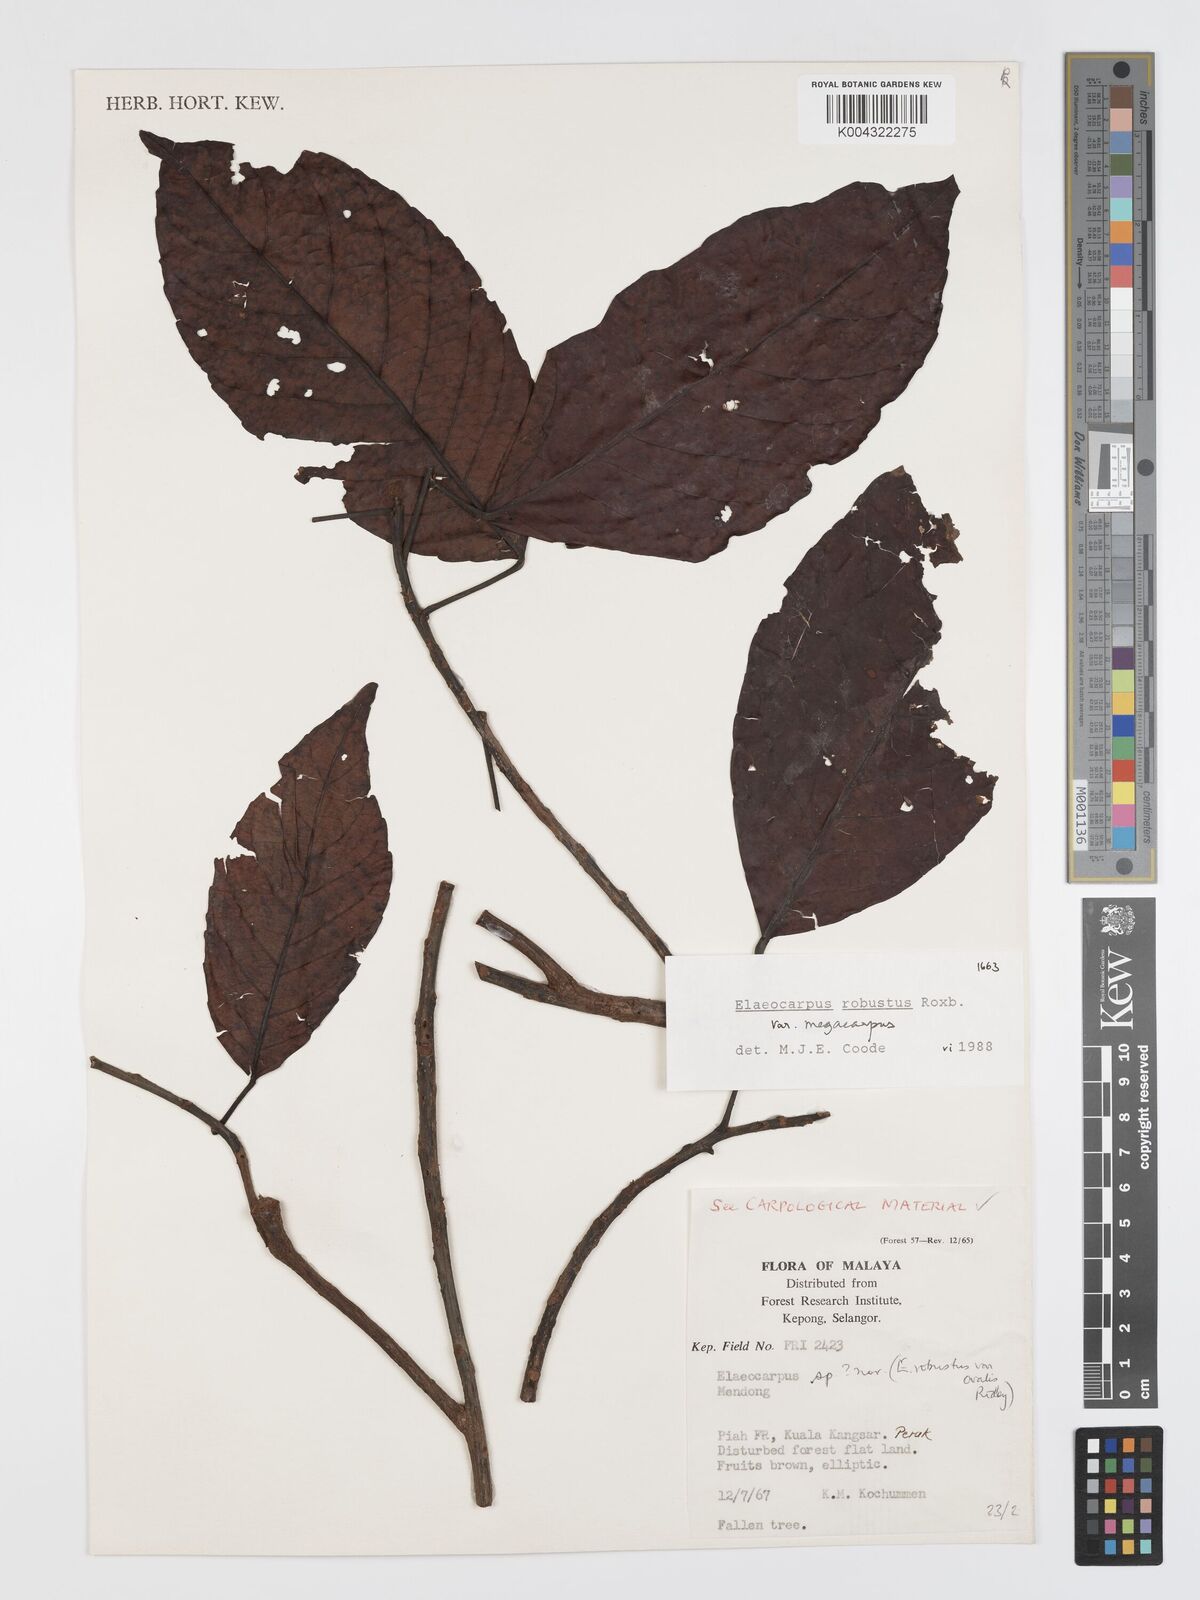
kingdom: Plantae
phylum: Tracheophyta
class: Magnoliopsida
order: Oxalidales
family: Elaeocarpaceae
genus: Elaeocarpus
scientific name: Elaeocarpus robustus
